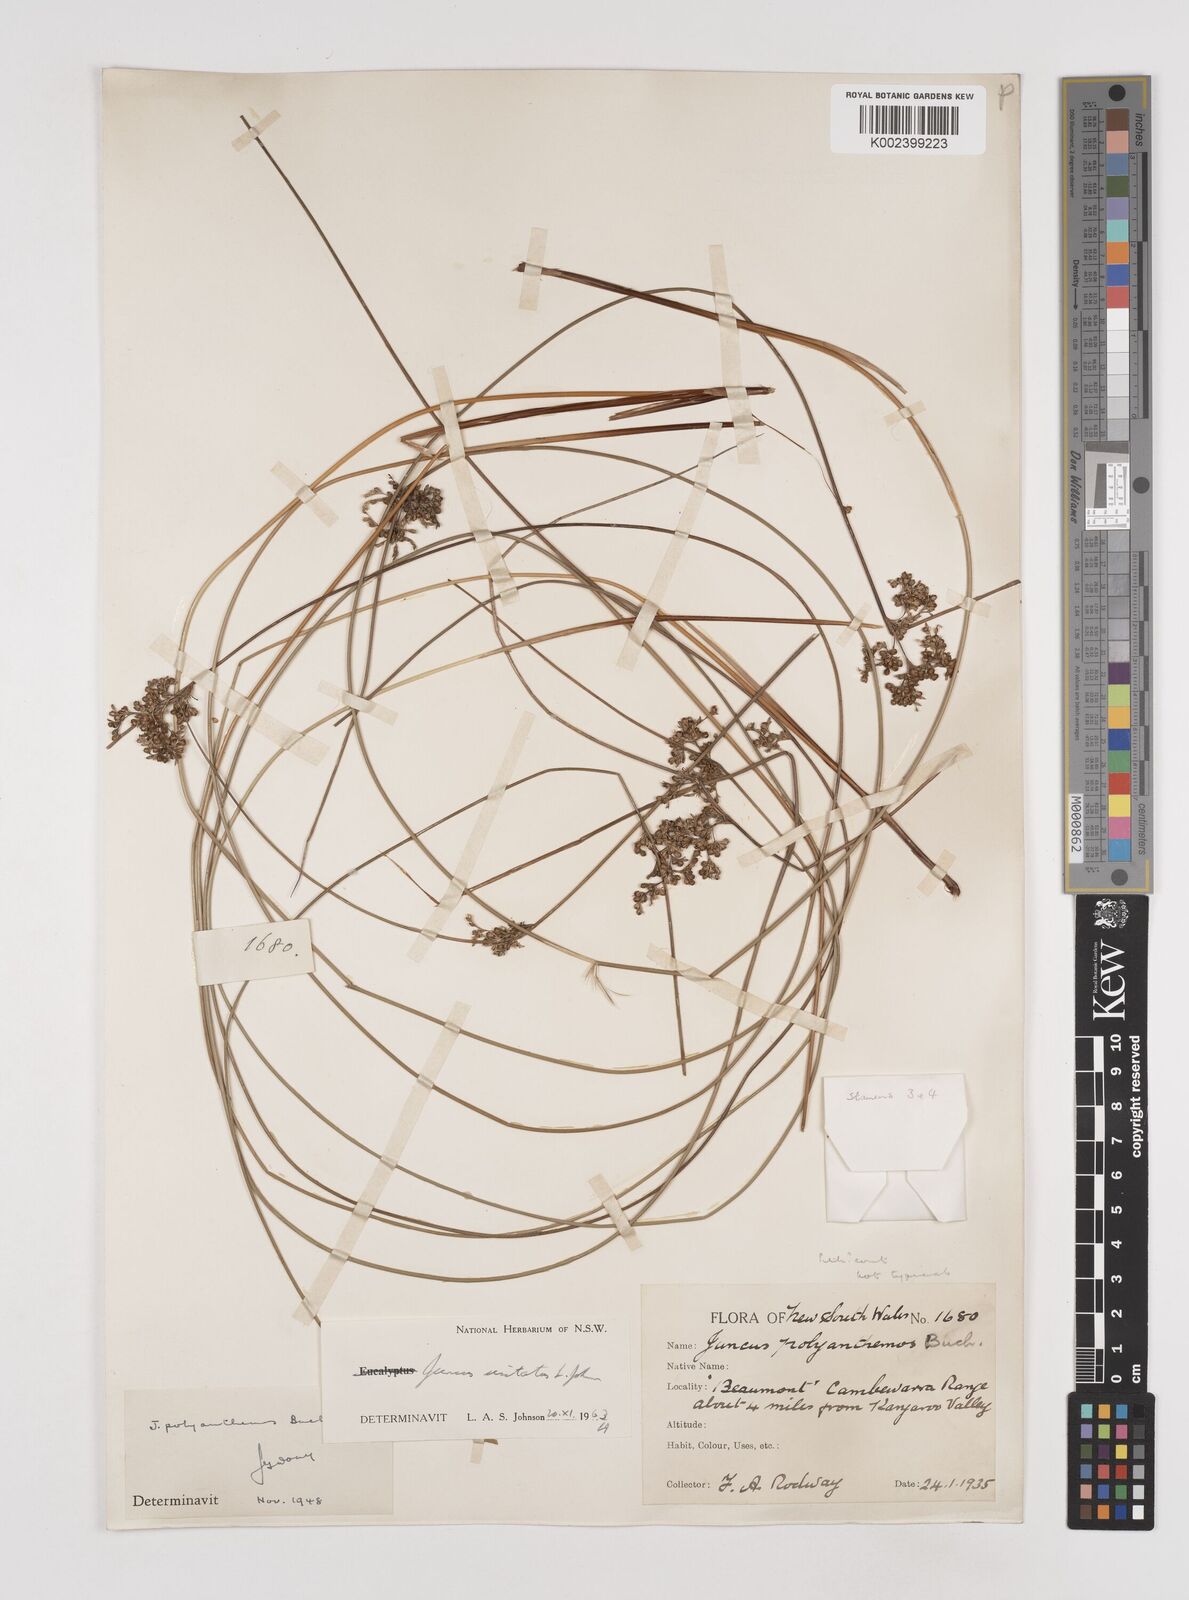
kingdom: Plantae
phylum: Tracheophyta
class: Liliopsida
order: Poales
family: Juncaceae
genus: Juncus
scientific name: Juncus usitatus
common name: Rush
